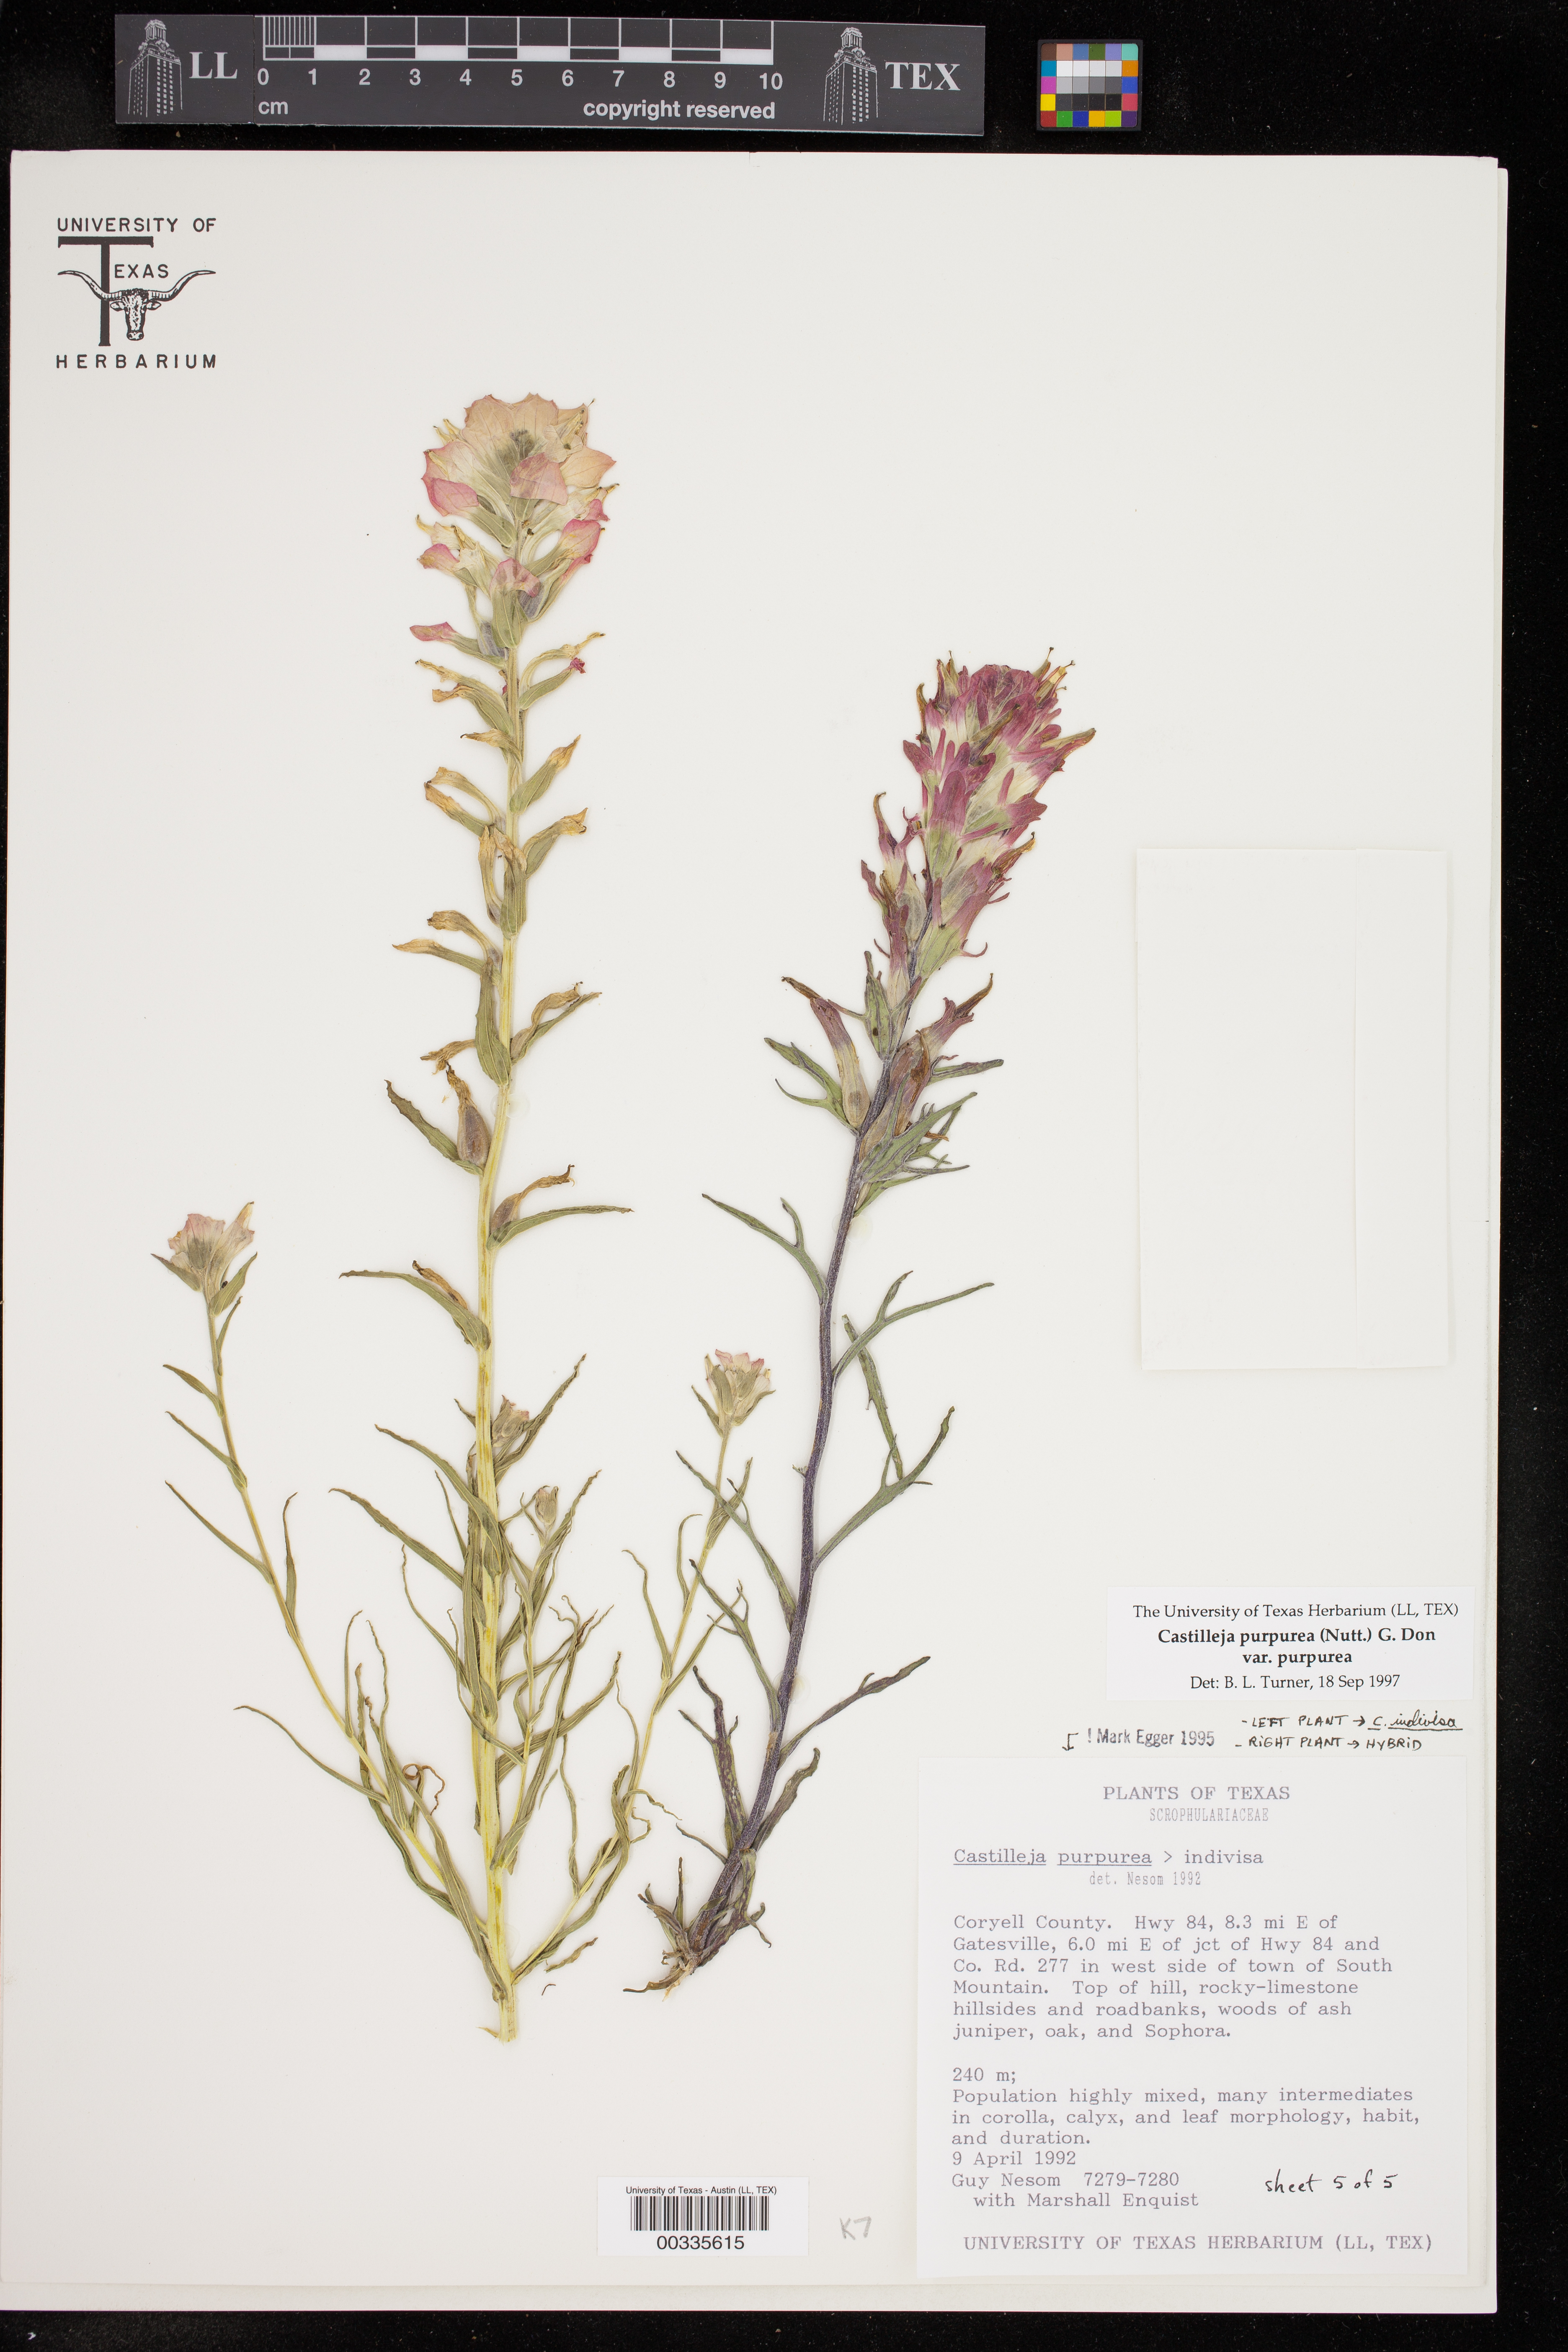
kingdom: Plantae
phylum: Tracheophyta
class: Magnoliopsida
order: Lamiales
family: Orobanchaceae
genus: Castilleja
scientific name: Castilleja
